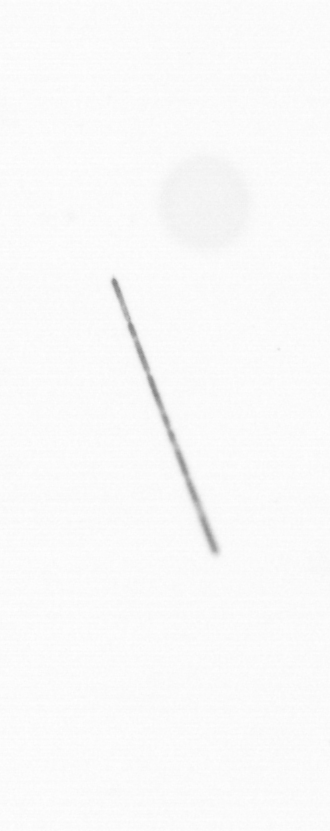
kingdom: Chromista
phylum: Ochrophyta
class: Bacillariophyceae
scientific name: Bacillariophyceae
